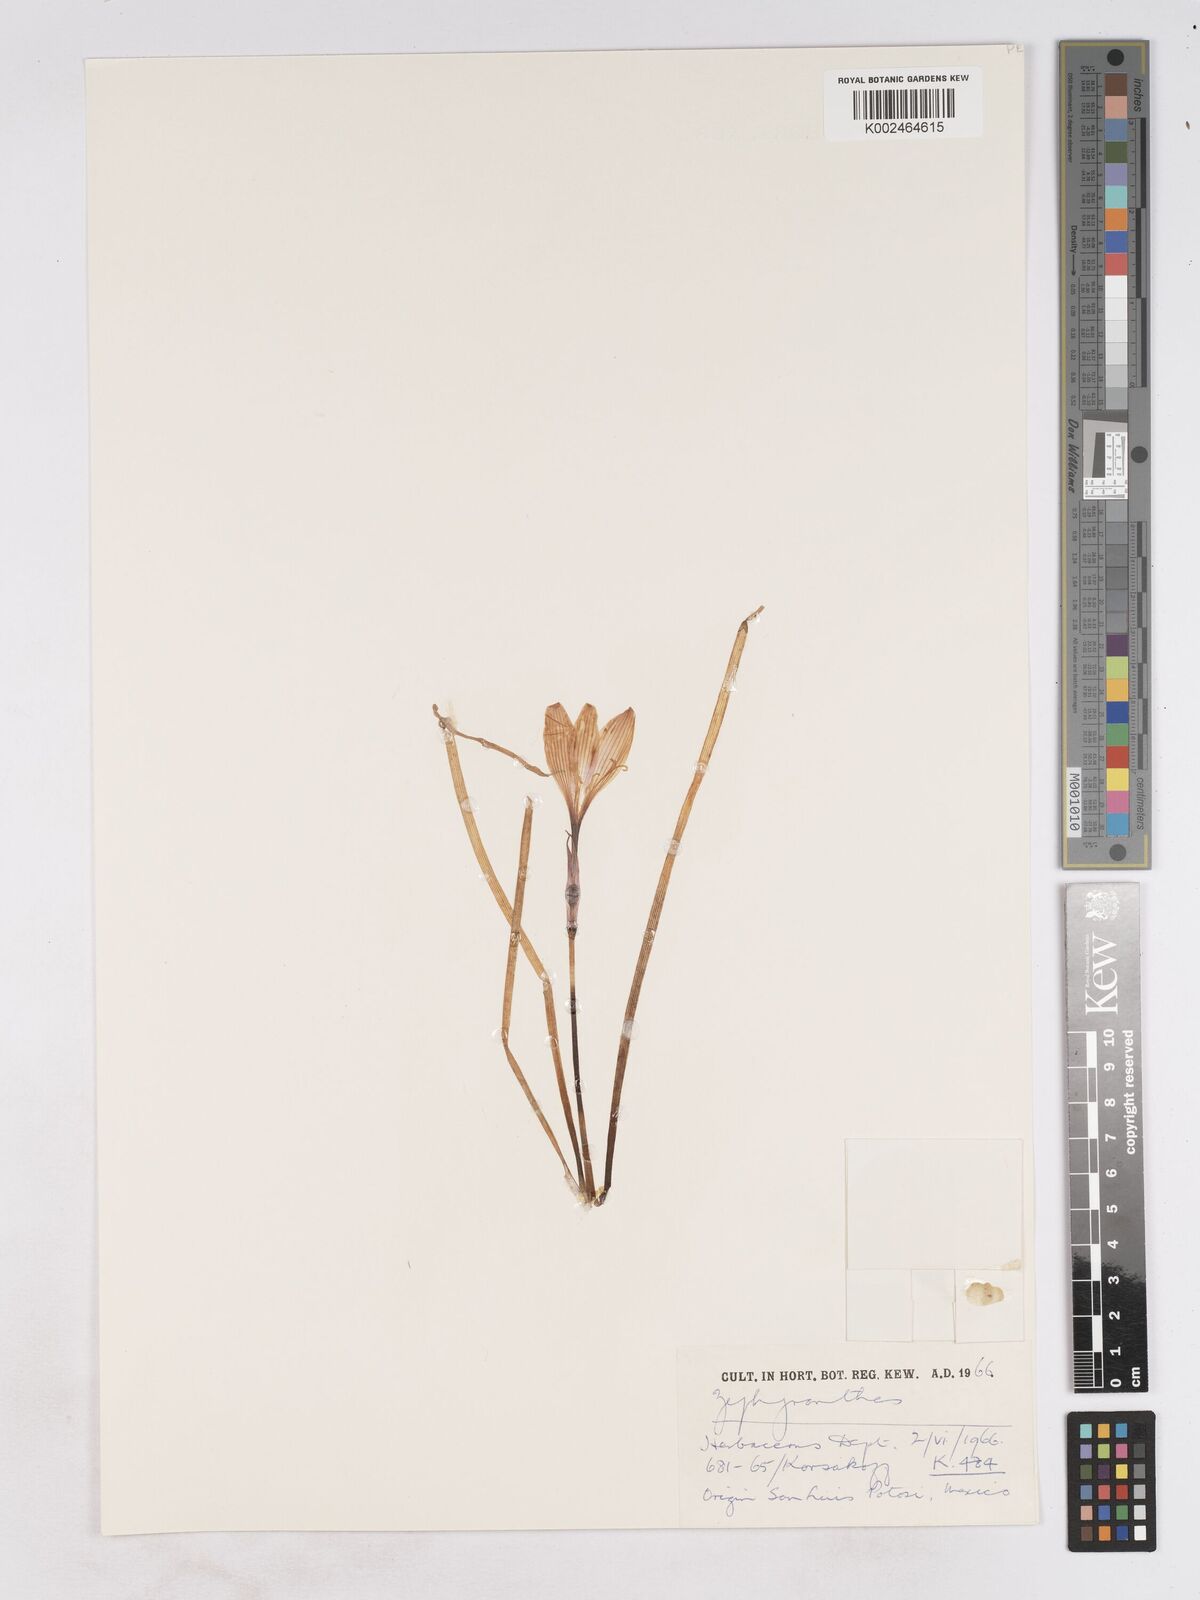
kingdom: Plantae
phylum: Tracheophyta
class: Liliopsida
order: Asparagales
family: Amaryllidaceae
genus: Zephyranthes
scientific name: Zephyranthes
